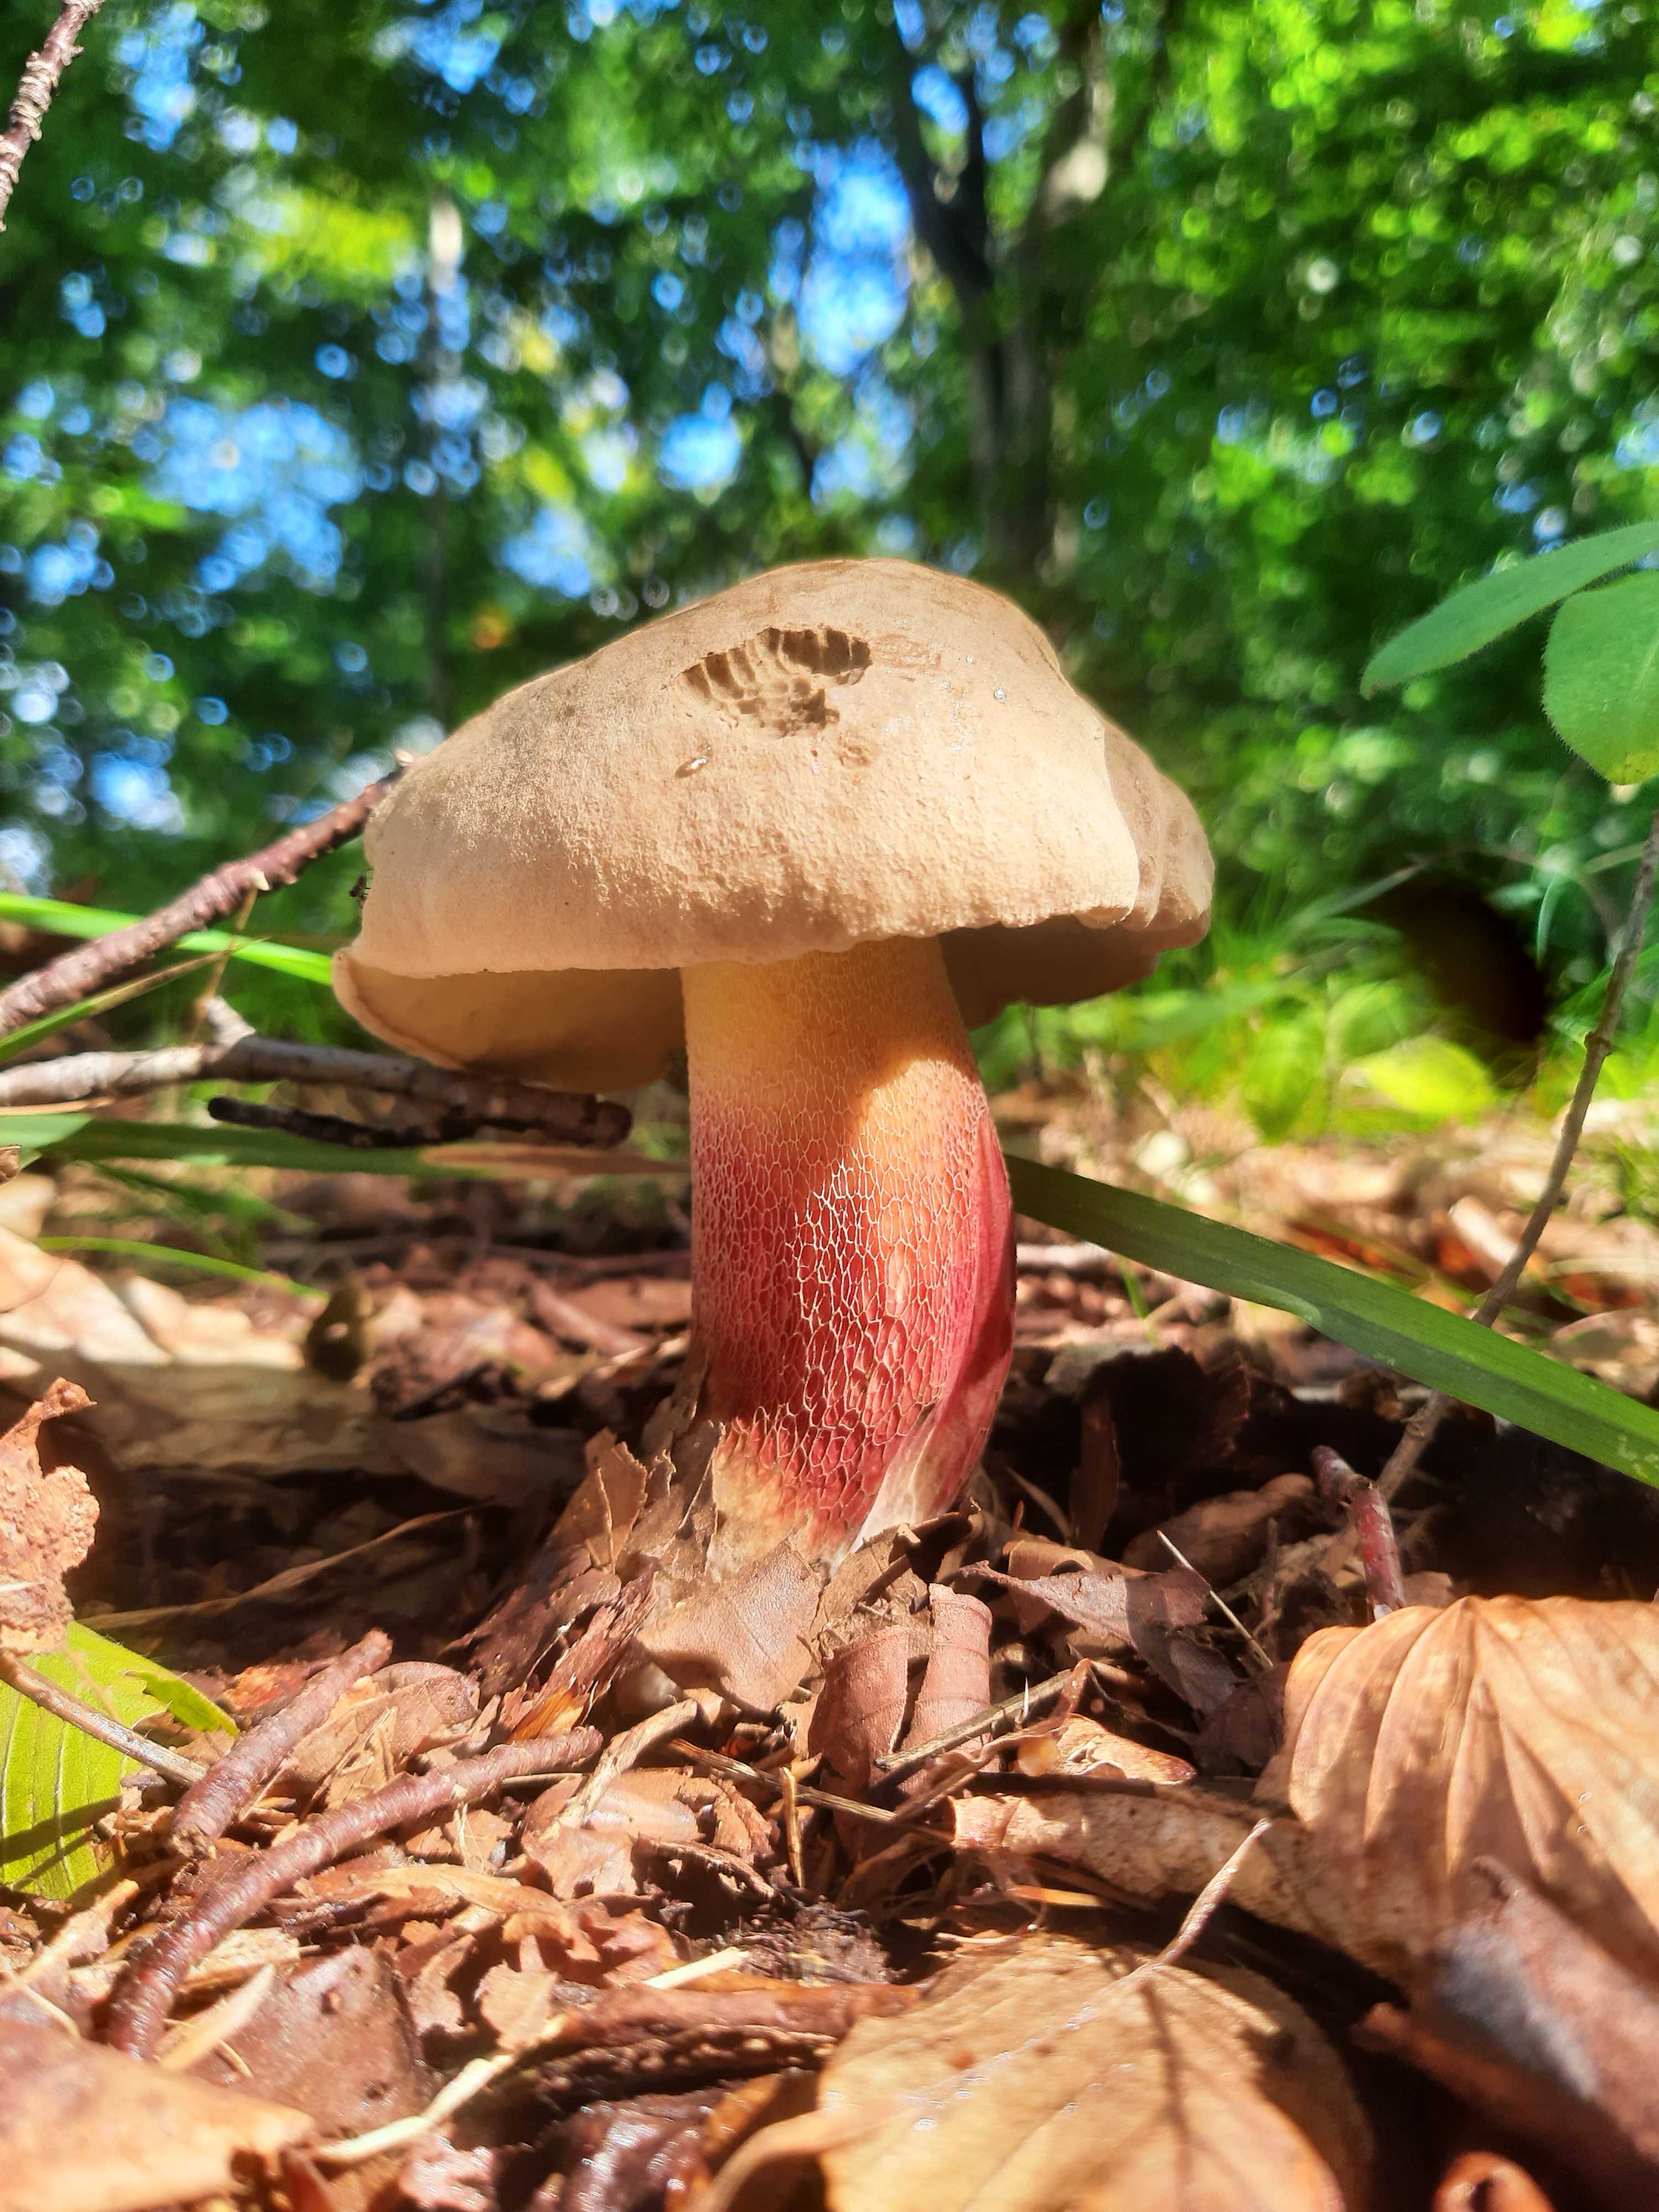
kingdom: Fungi
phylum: Basidiomycota
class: Agaricomycetes
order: Boletales
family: Boletaceae
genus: Caloboletus
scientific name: Caloboletus calopus
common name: skønfodet rørhat
